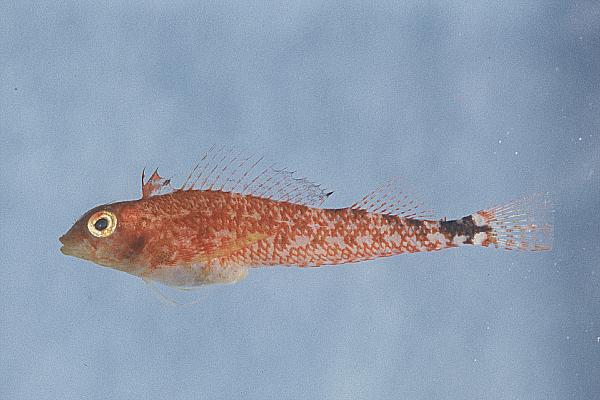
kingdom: Animalia
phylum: Chordata
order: Perciformes
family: Tripterygiidae
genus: Tripterygion
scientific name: Tripterygion delaisi
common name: Black-face blenny
